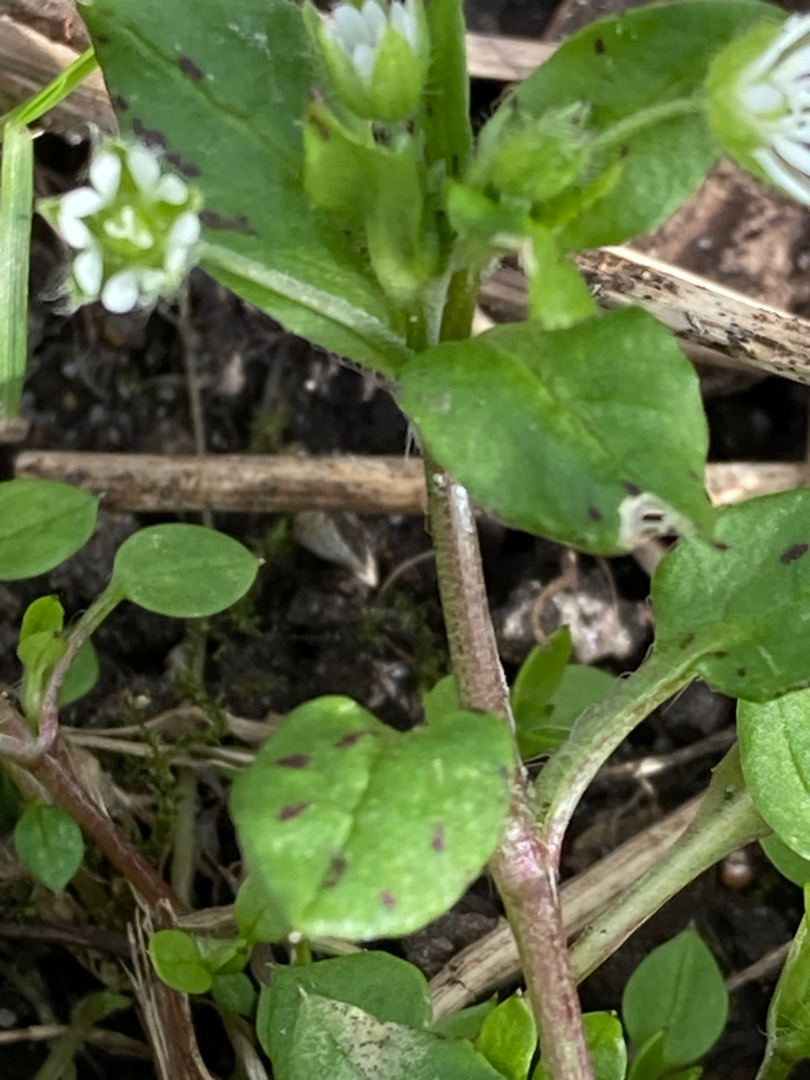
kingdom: Plantae
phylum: Tracheophyta
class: Magnoliopsida
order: Caryophyllales
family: Caryophyllaceae
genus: Stellaria
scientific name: Stellaria media
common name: Almindelig fuglegræs
